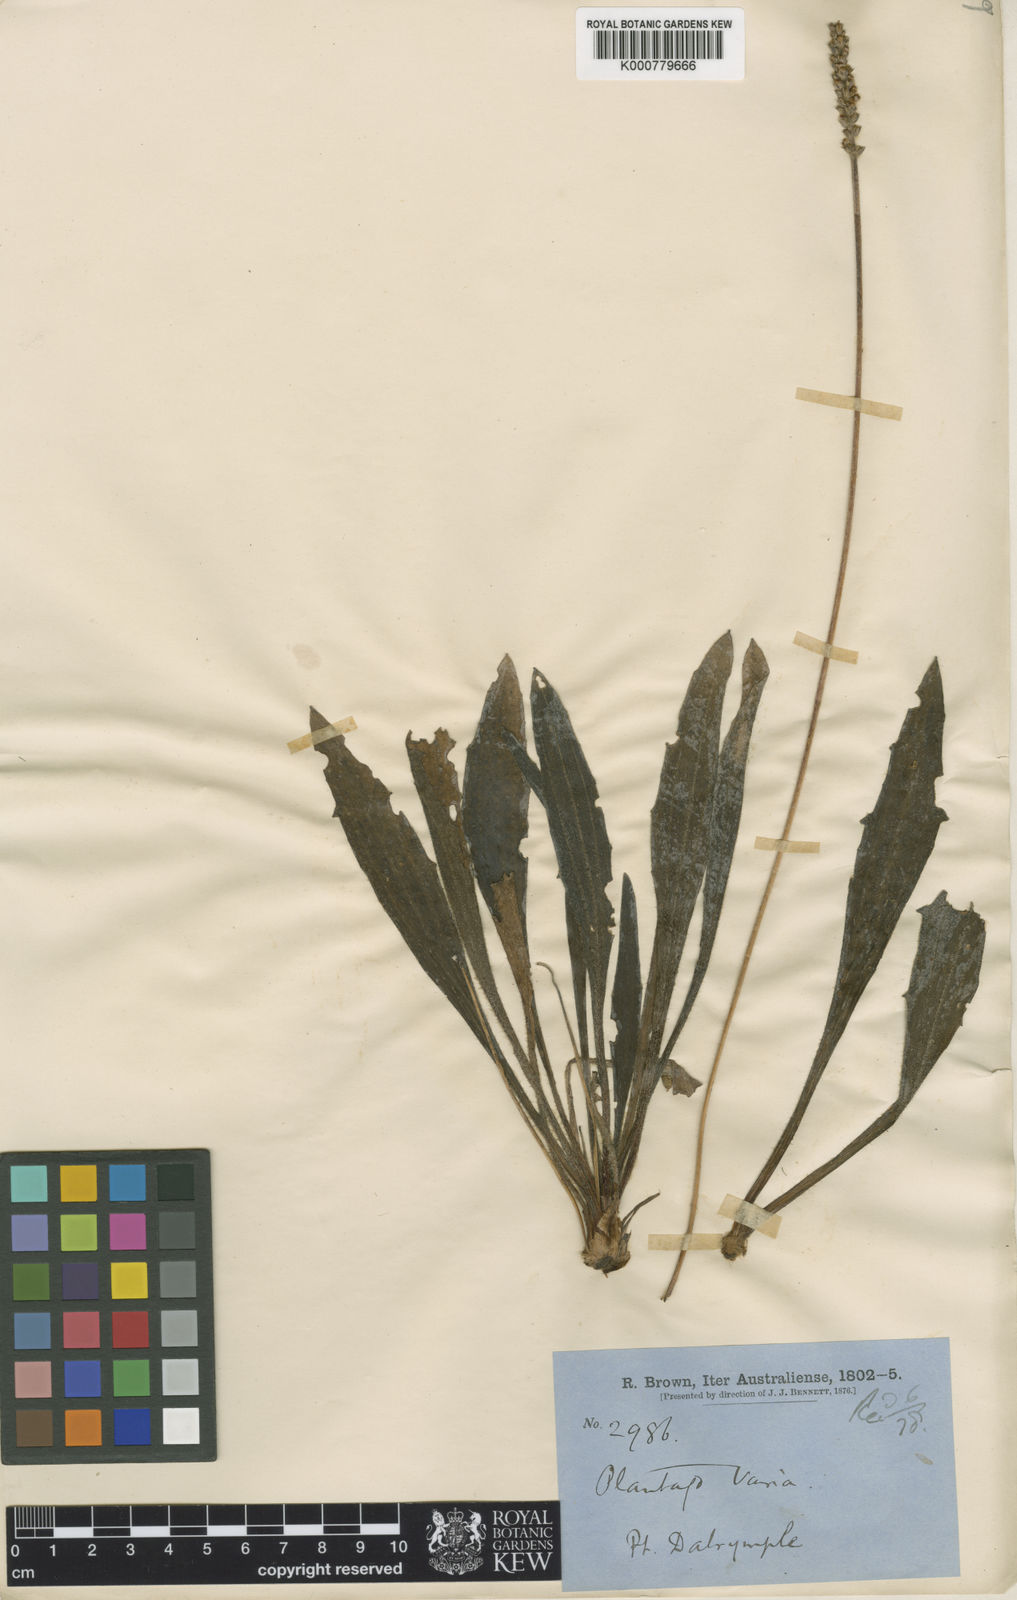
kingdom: Plantae
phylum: Tracheophyta
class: Magnoliopsida
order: Lamiales
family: Plantaginaceae
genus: Plantago
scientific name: Plantago varia
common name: Variable plantain
